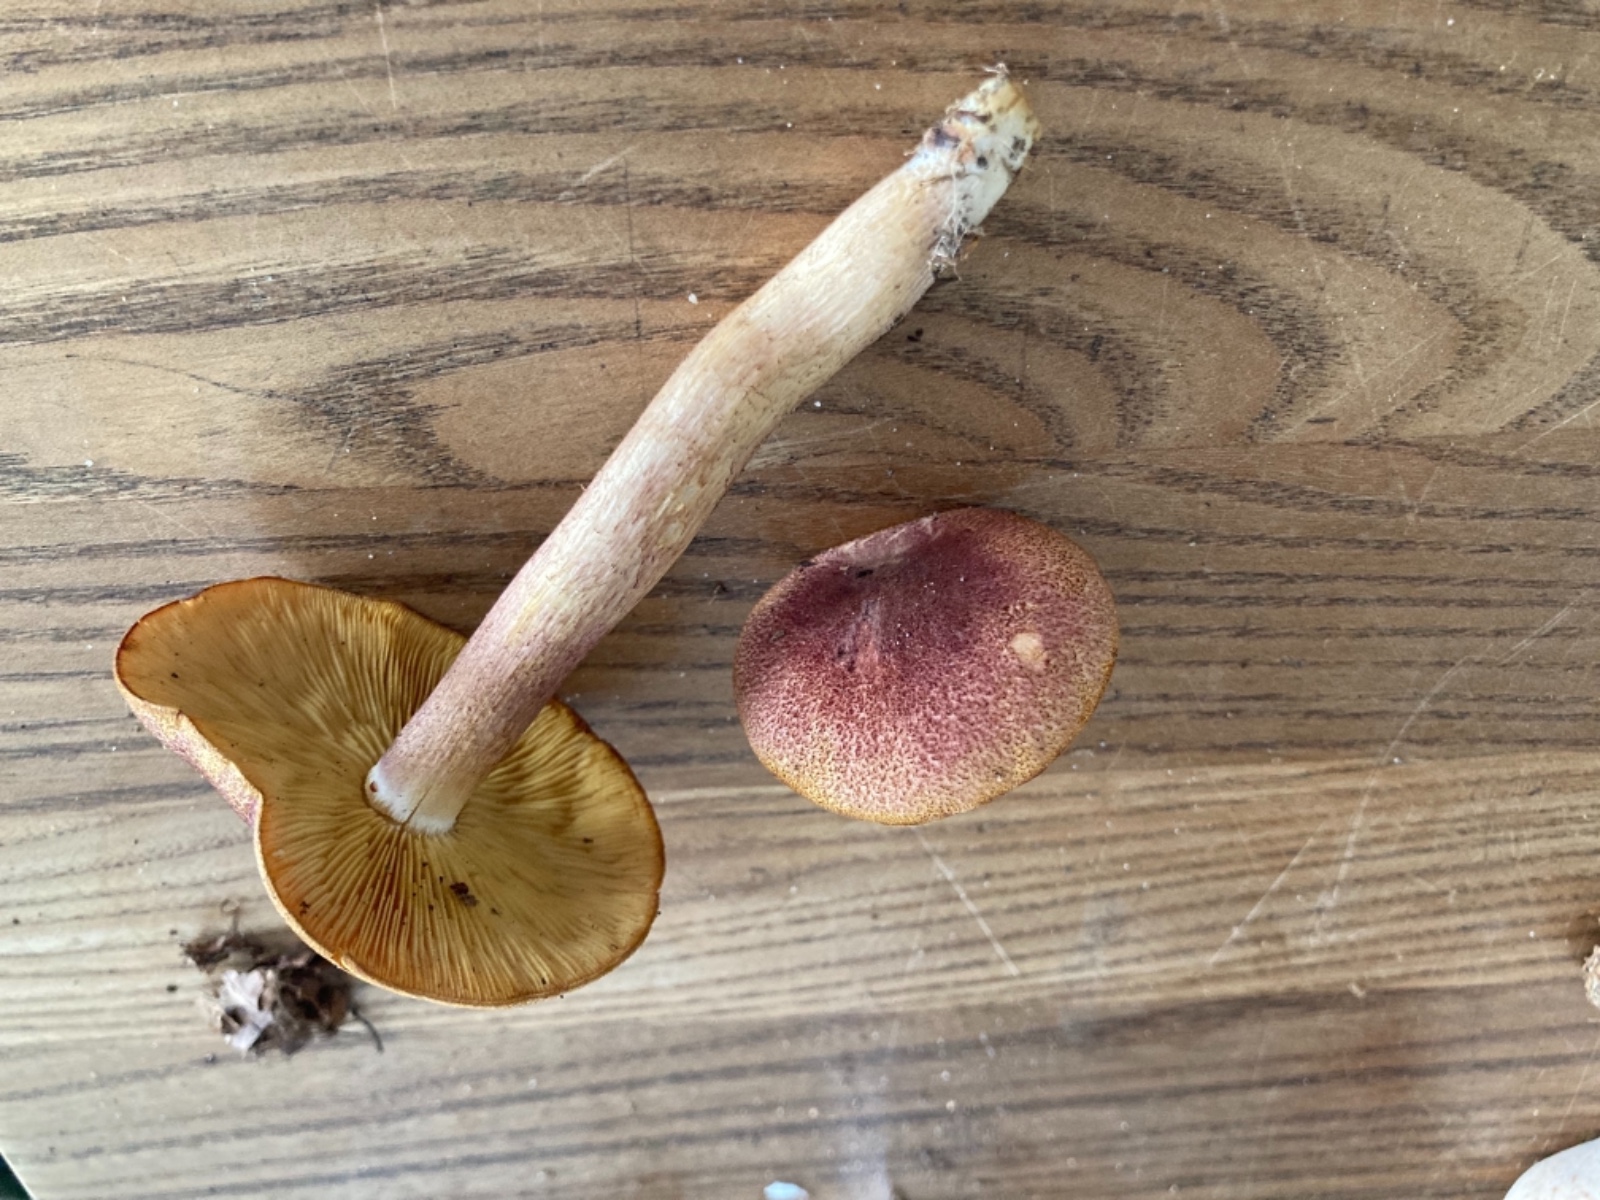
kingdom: Fungi
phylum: Basidiomycota
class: Agaricomycetes
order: Agaricales
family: Tricholomataceae
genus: Tricholomopsis
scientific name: Tricholomopsis rutilans
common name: purpur-væbnerhat
